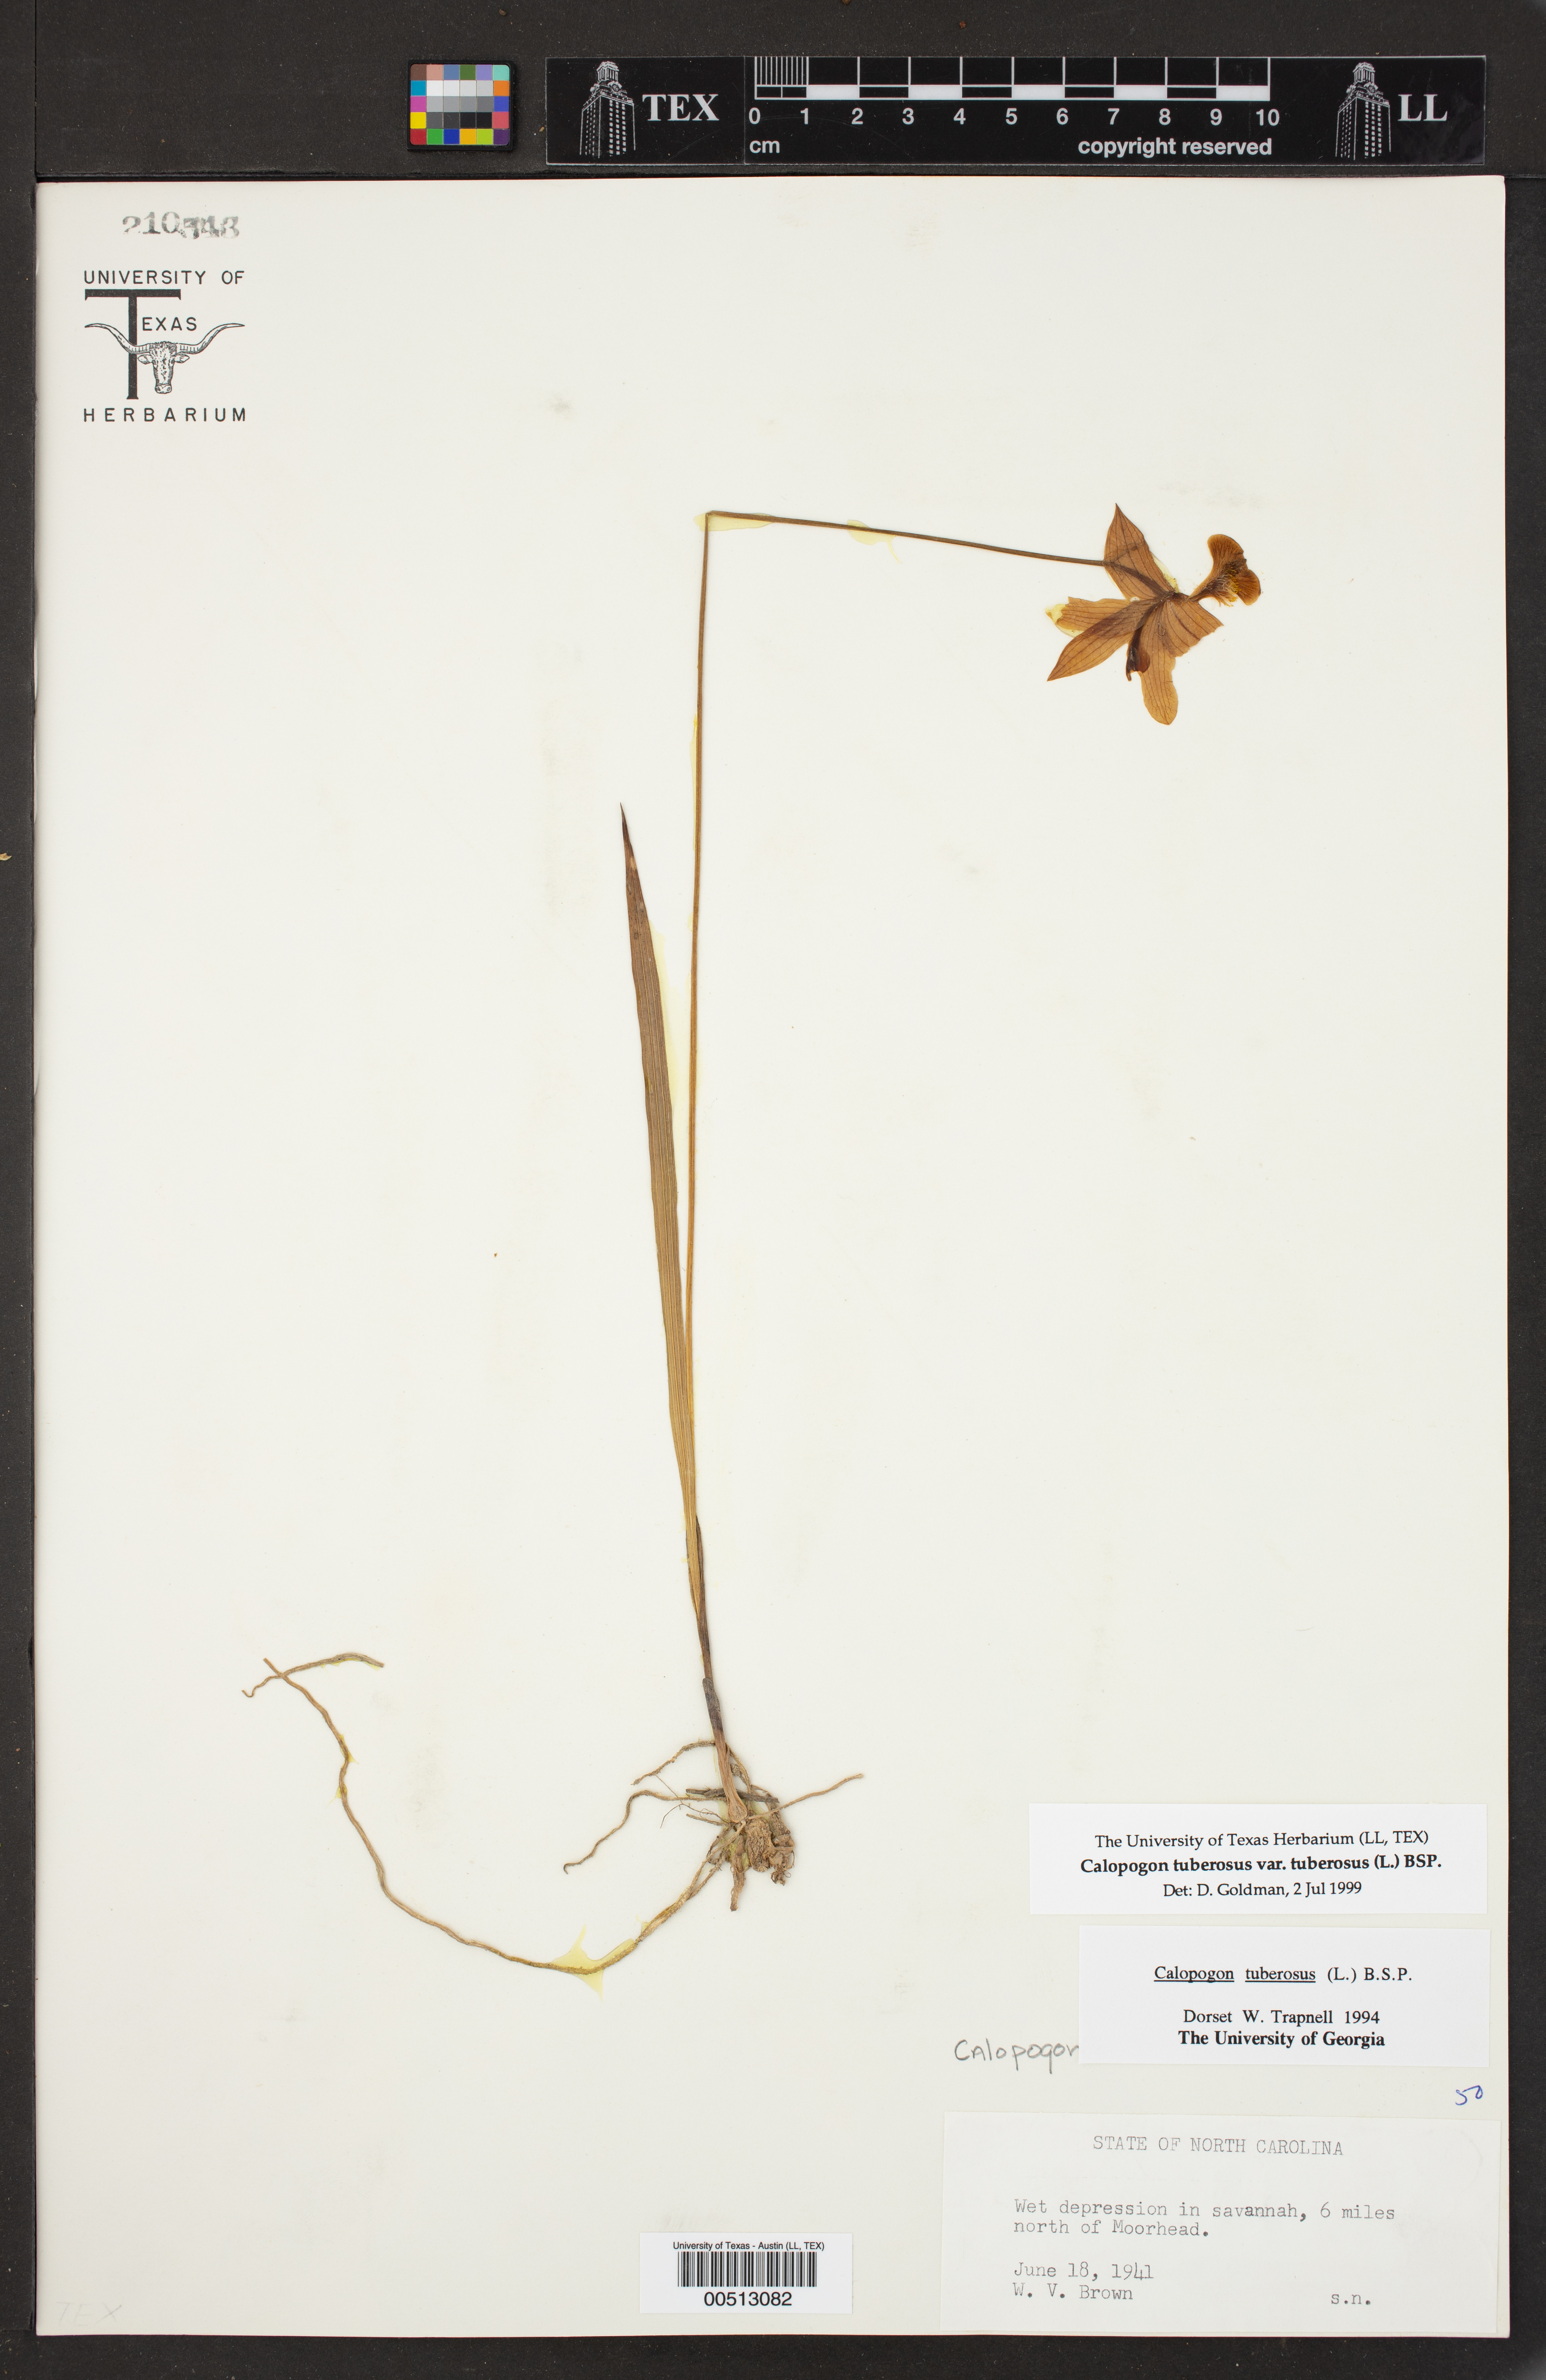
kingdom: Plantae
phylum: Tracheophyta
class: Liliopsida
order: Asparagales
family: Orchidaceae
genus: Calopogon
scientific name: Calopogon tuberosus
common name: Grass-pink
